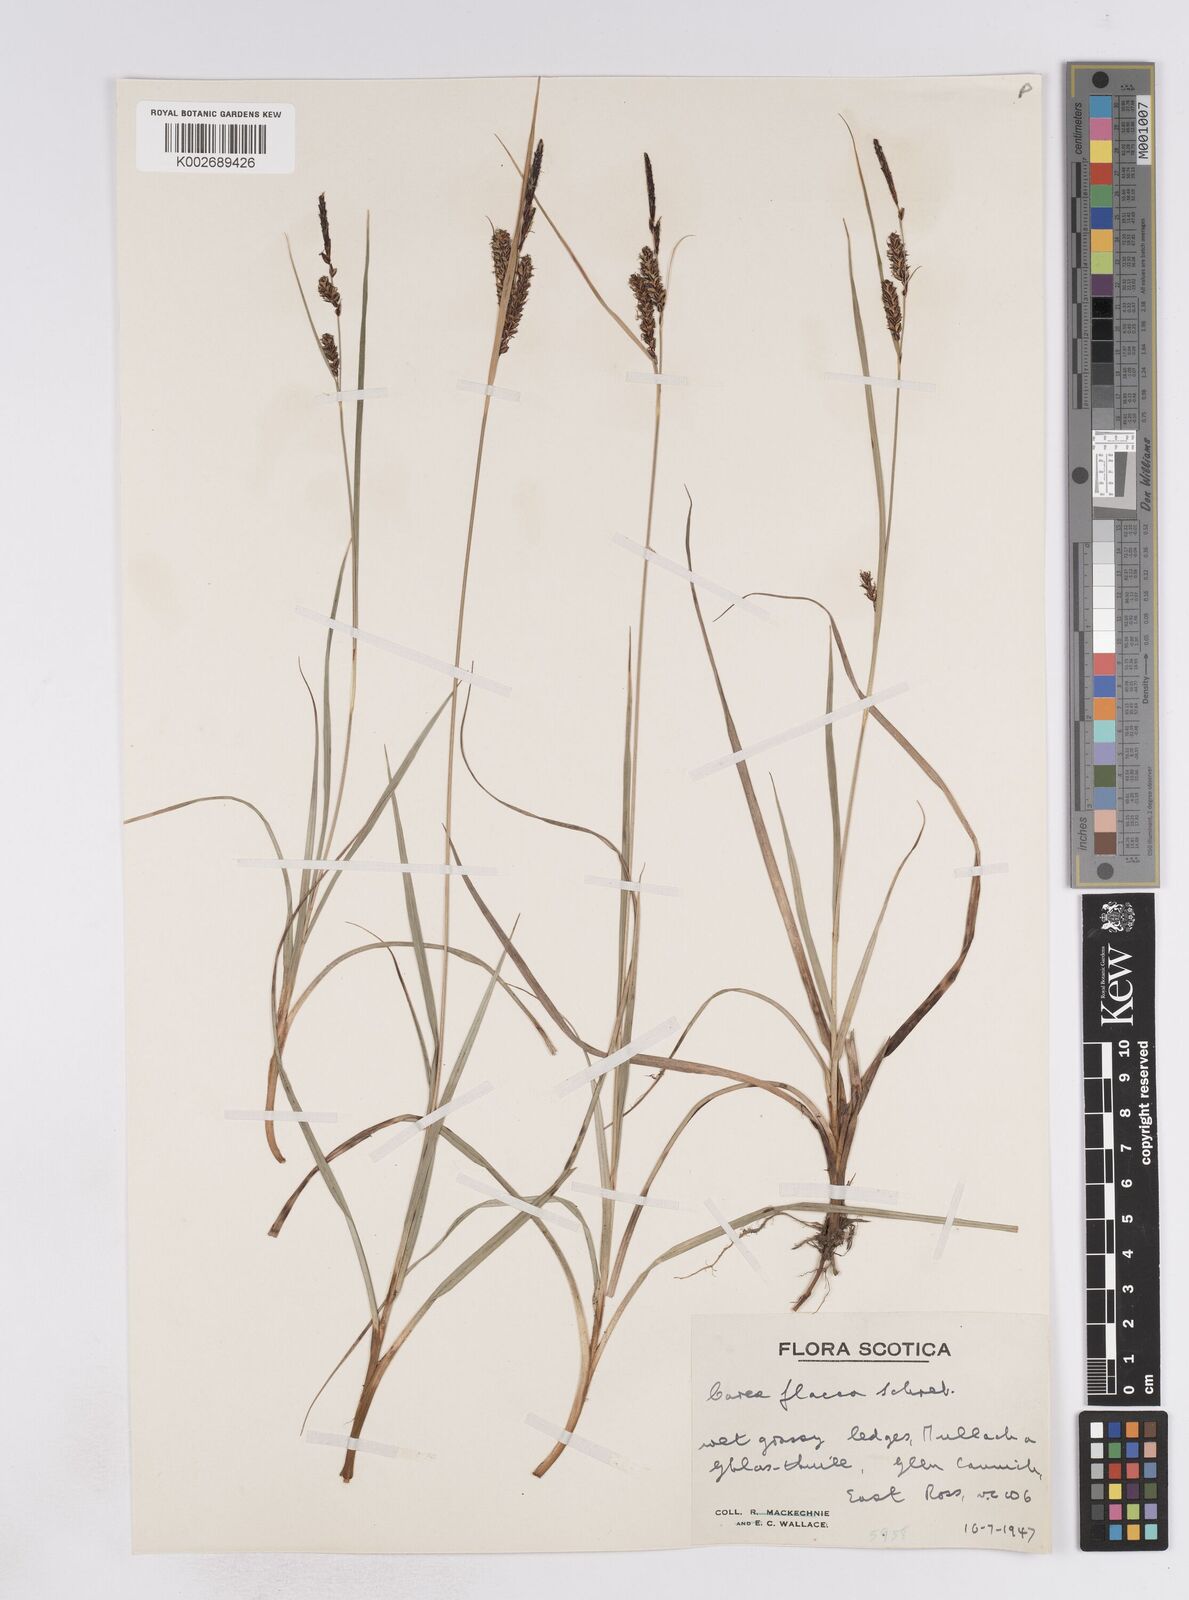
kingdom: Plantae
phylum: Tracheophyta
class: Liliopsida
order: Poales
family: Cyperaceae
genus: Carex
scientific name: Carex flacca
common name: Glaucous sedge
